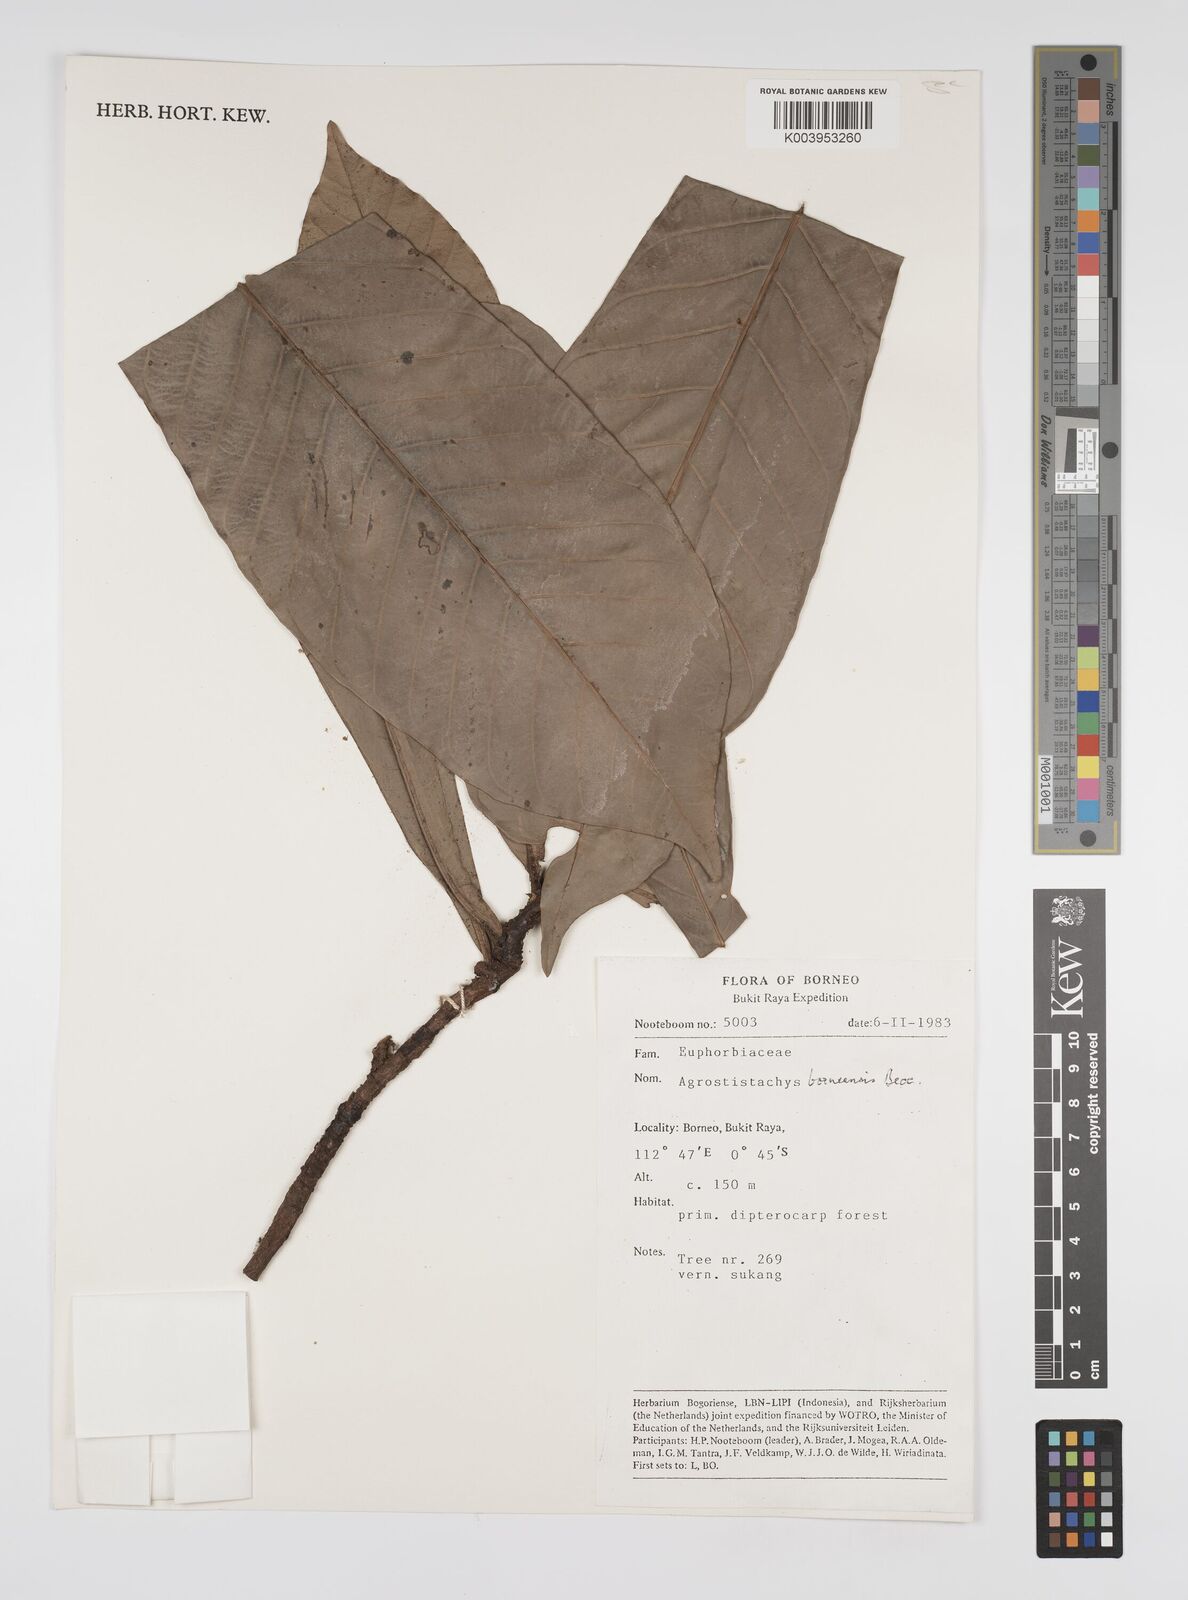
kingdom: Plantae
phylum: Tracheophyta
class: Magnoliopsida
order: Malpighiales
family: Euphorbiaceae
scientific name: Euphorbiaceae
